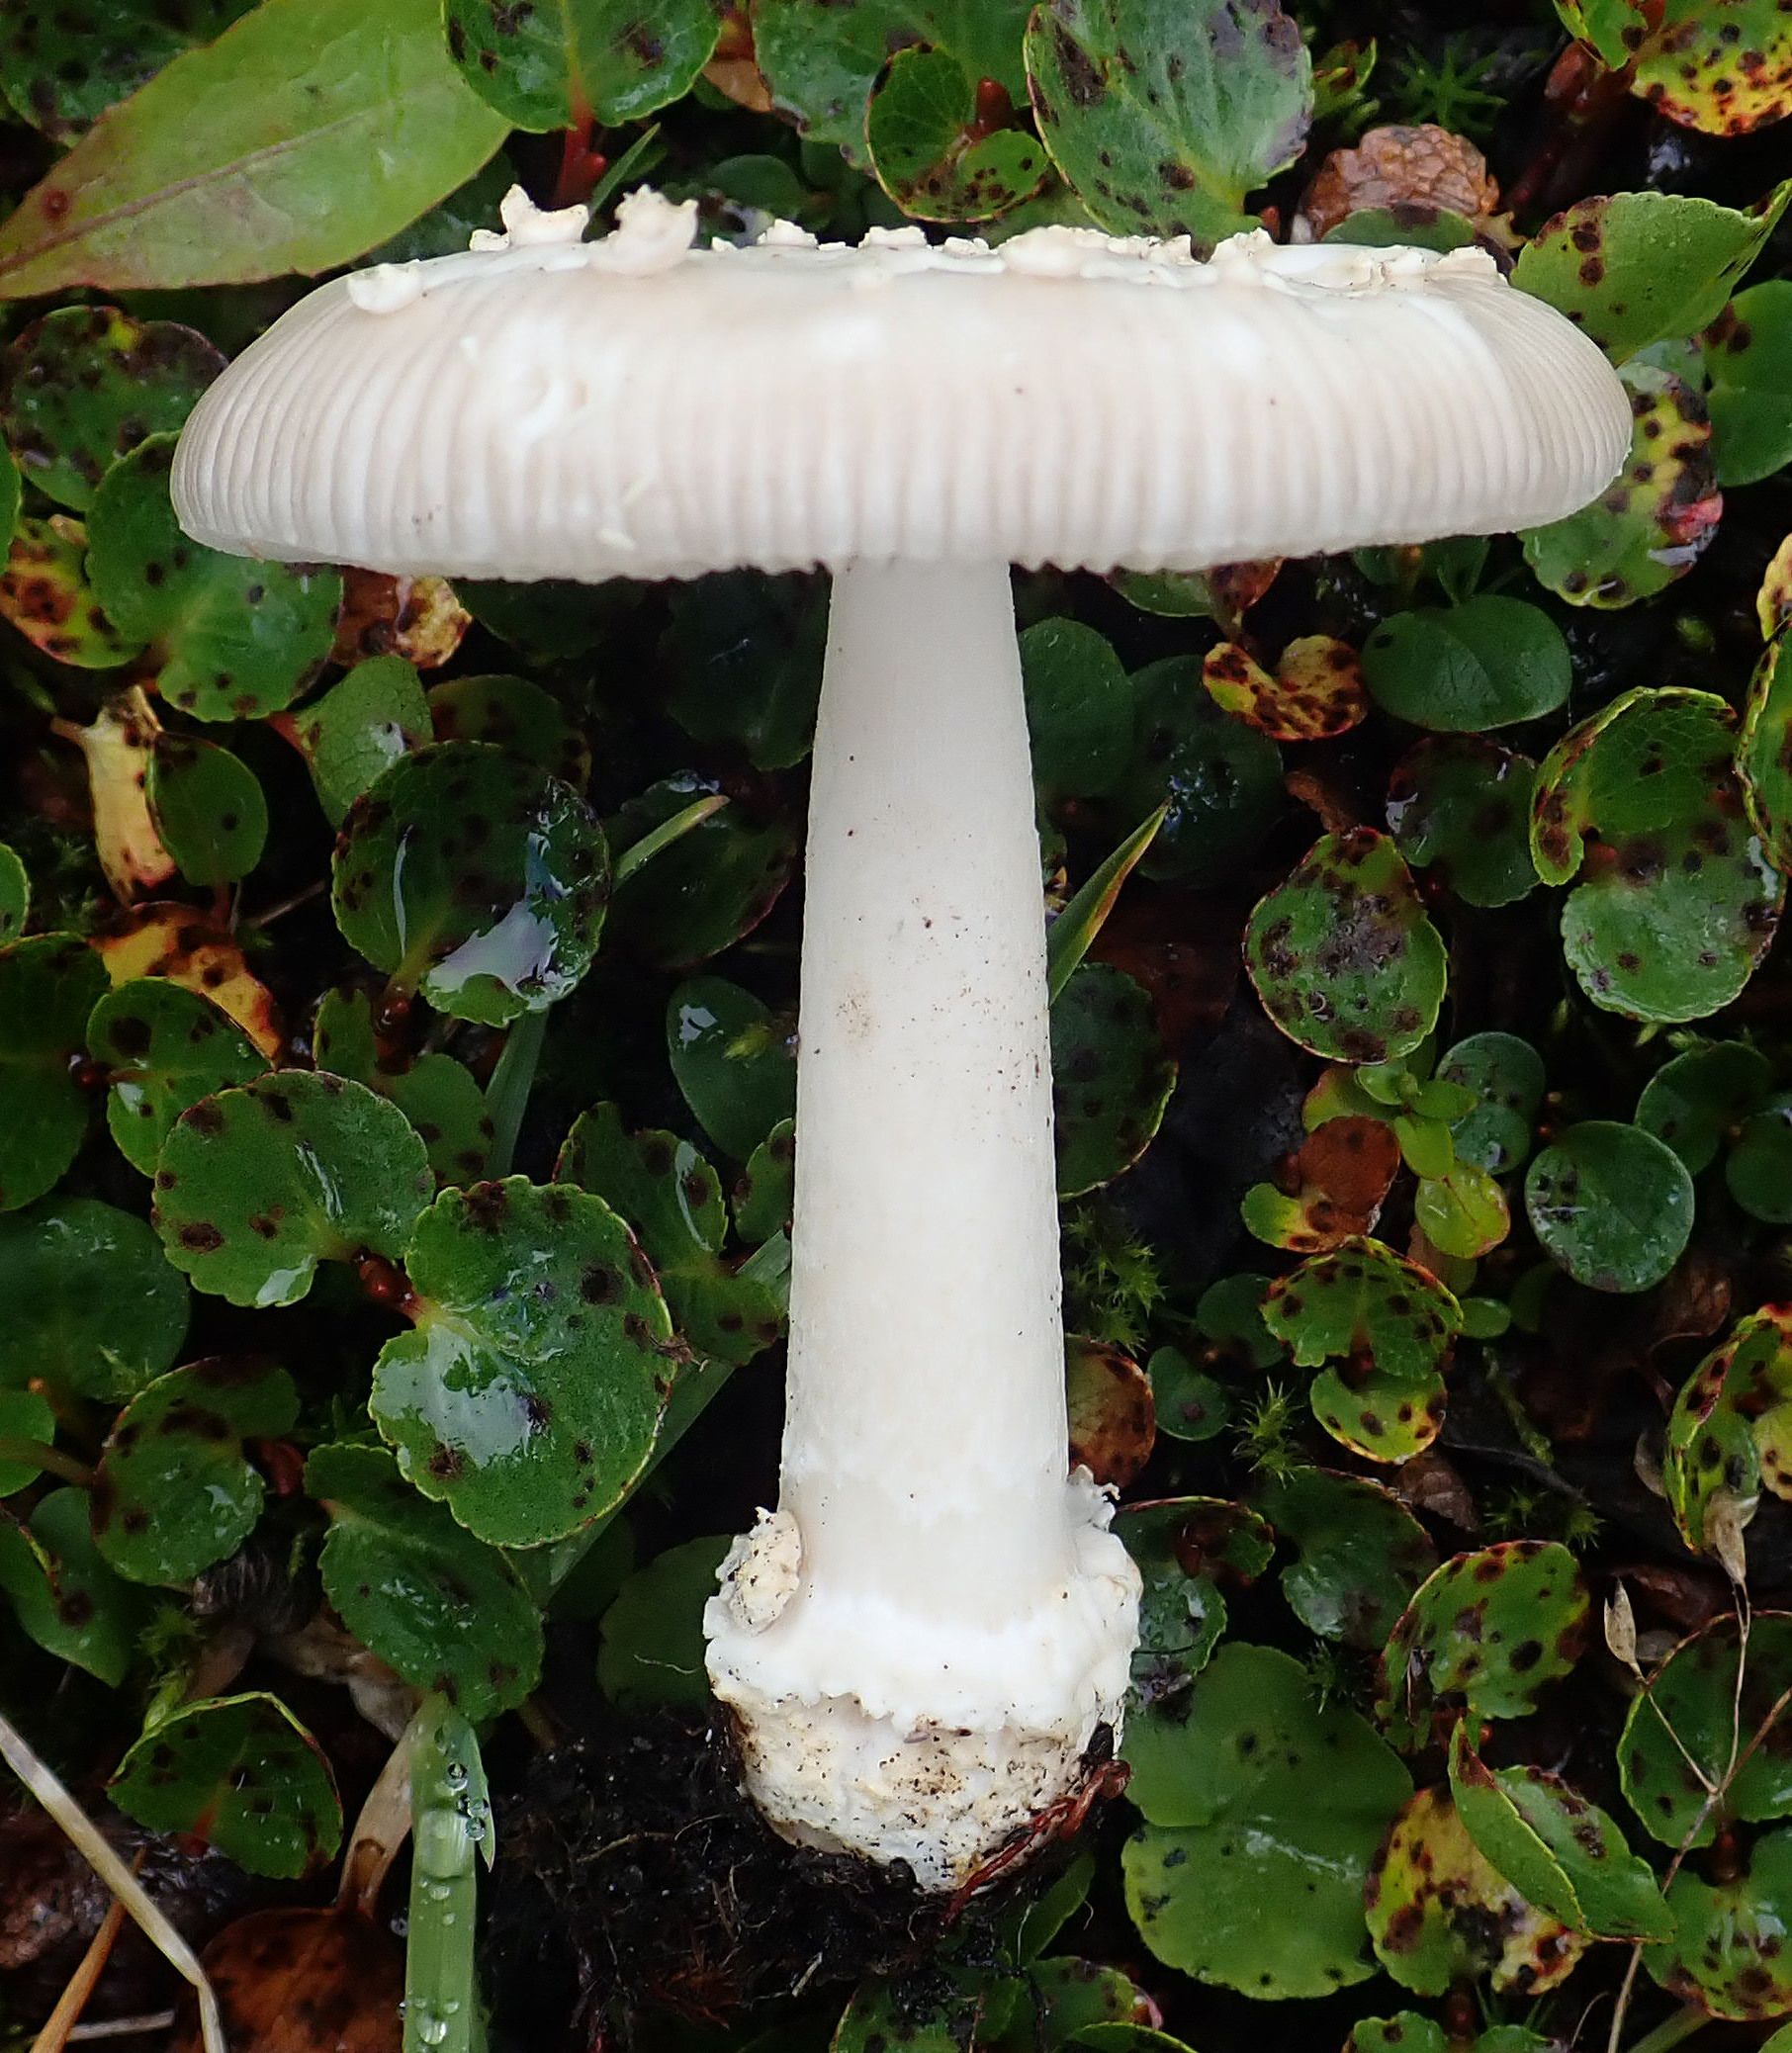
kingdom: Fungi
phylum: Basidiomycota
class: Agaricomycetes
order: Agaricales
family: Amanitaceae
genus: Amanita
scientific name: Amanita nivalis
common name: Mountain grisette
